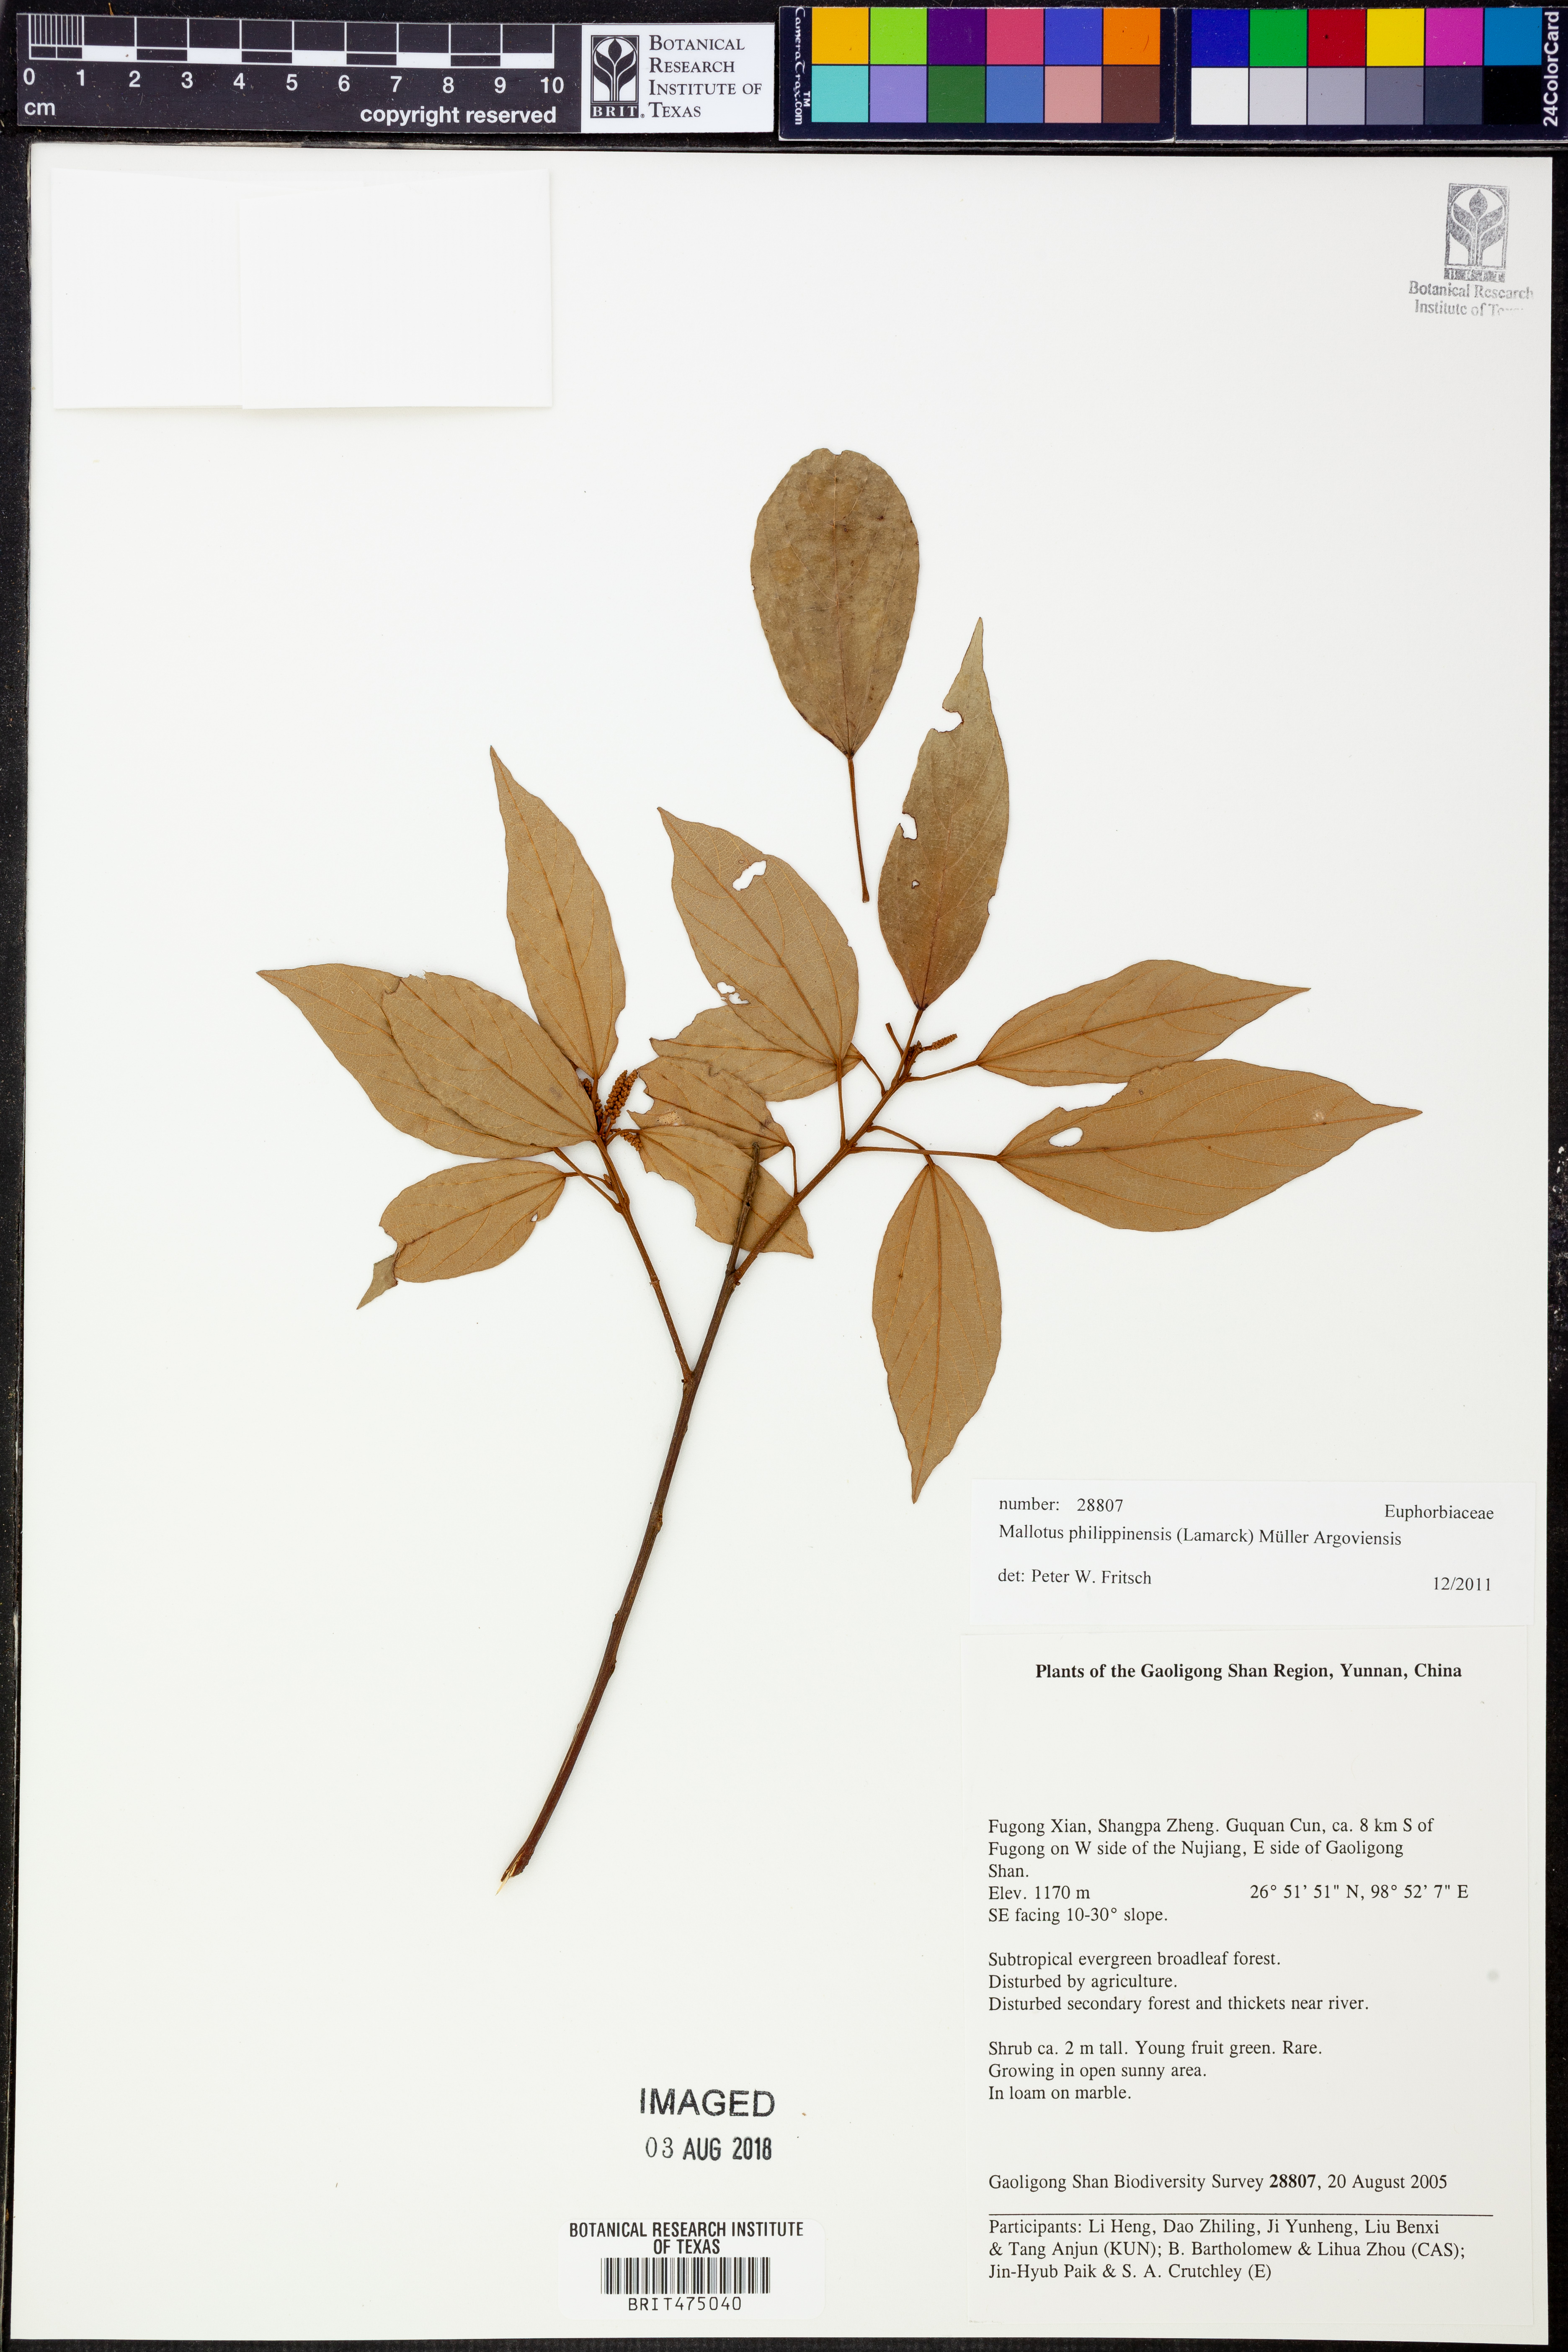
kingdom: Plantae
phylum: Tracheophyta
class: Magnoliopsida
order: Malpighiales
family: Euphorbiaceae
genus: Mallotus
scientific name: Mallotus philippensis
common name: Kamala tree
